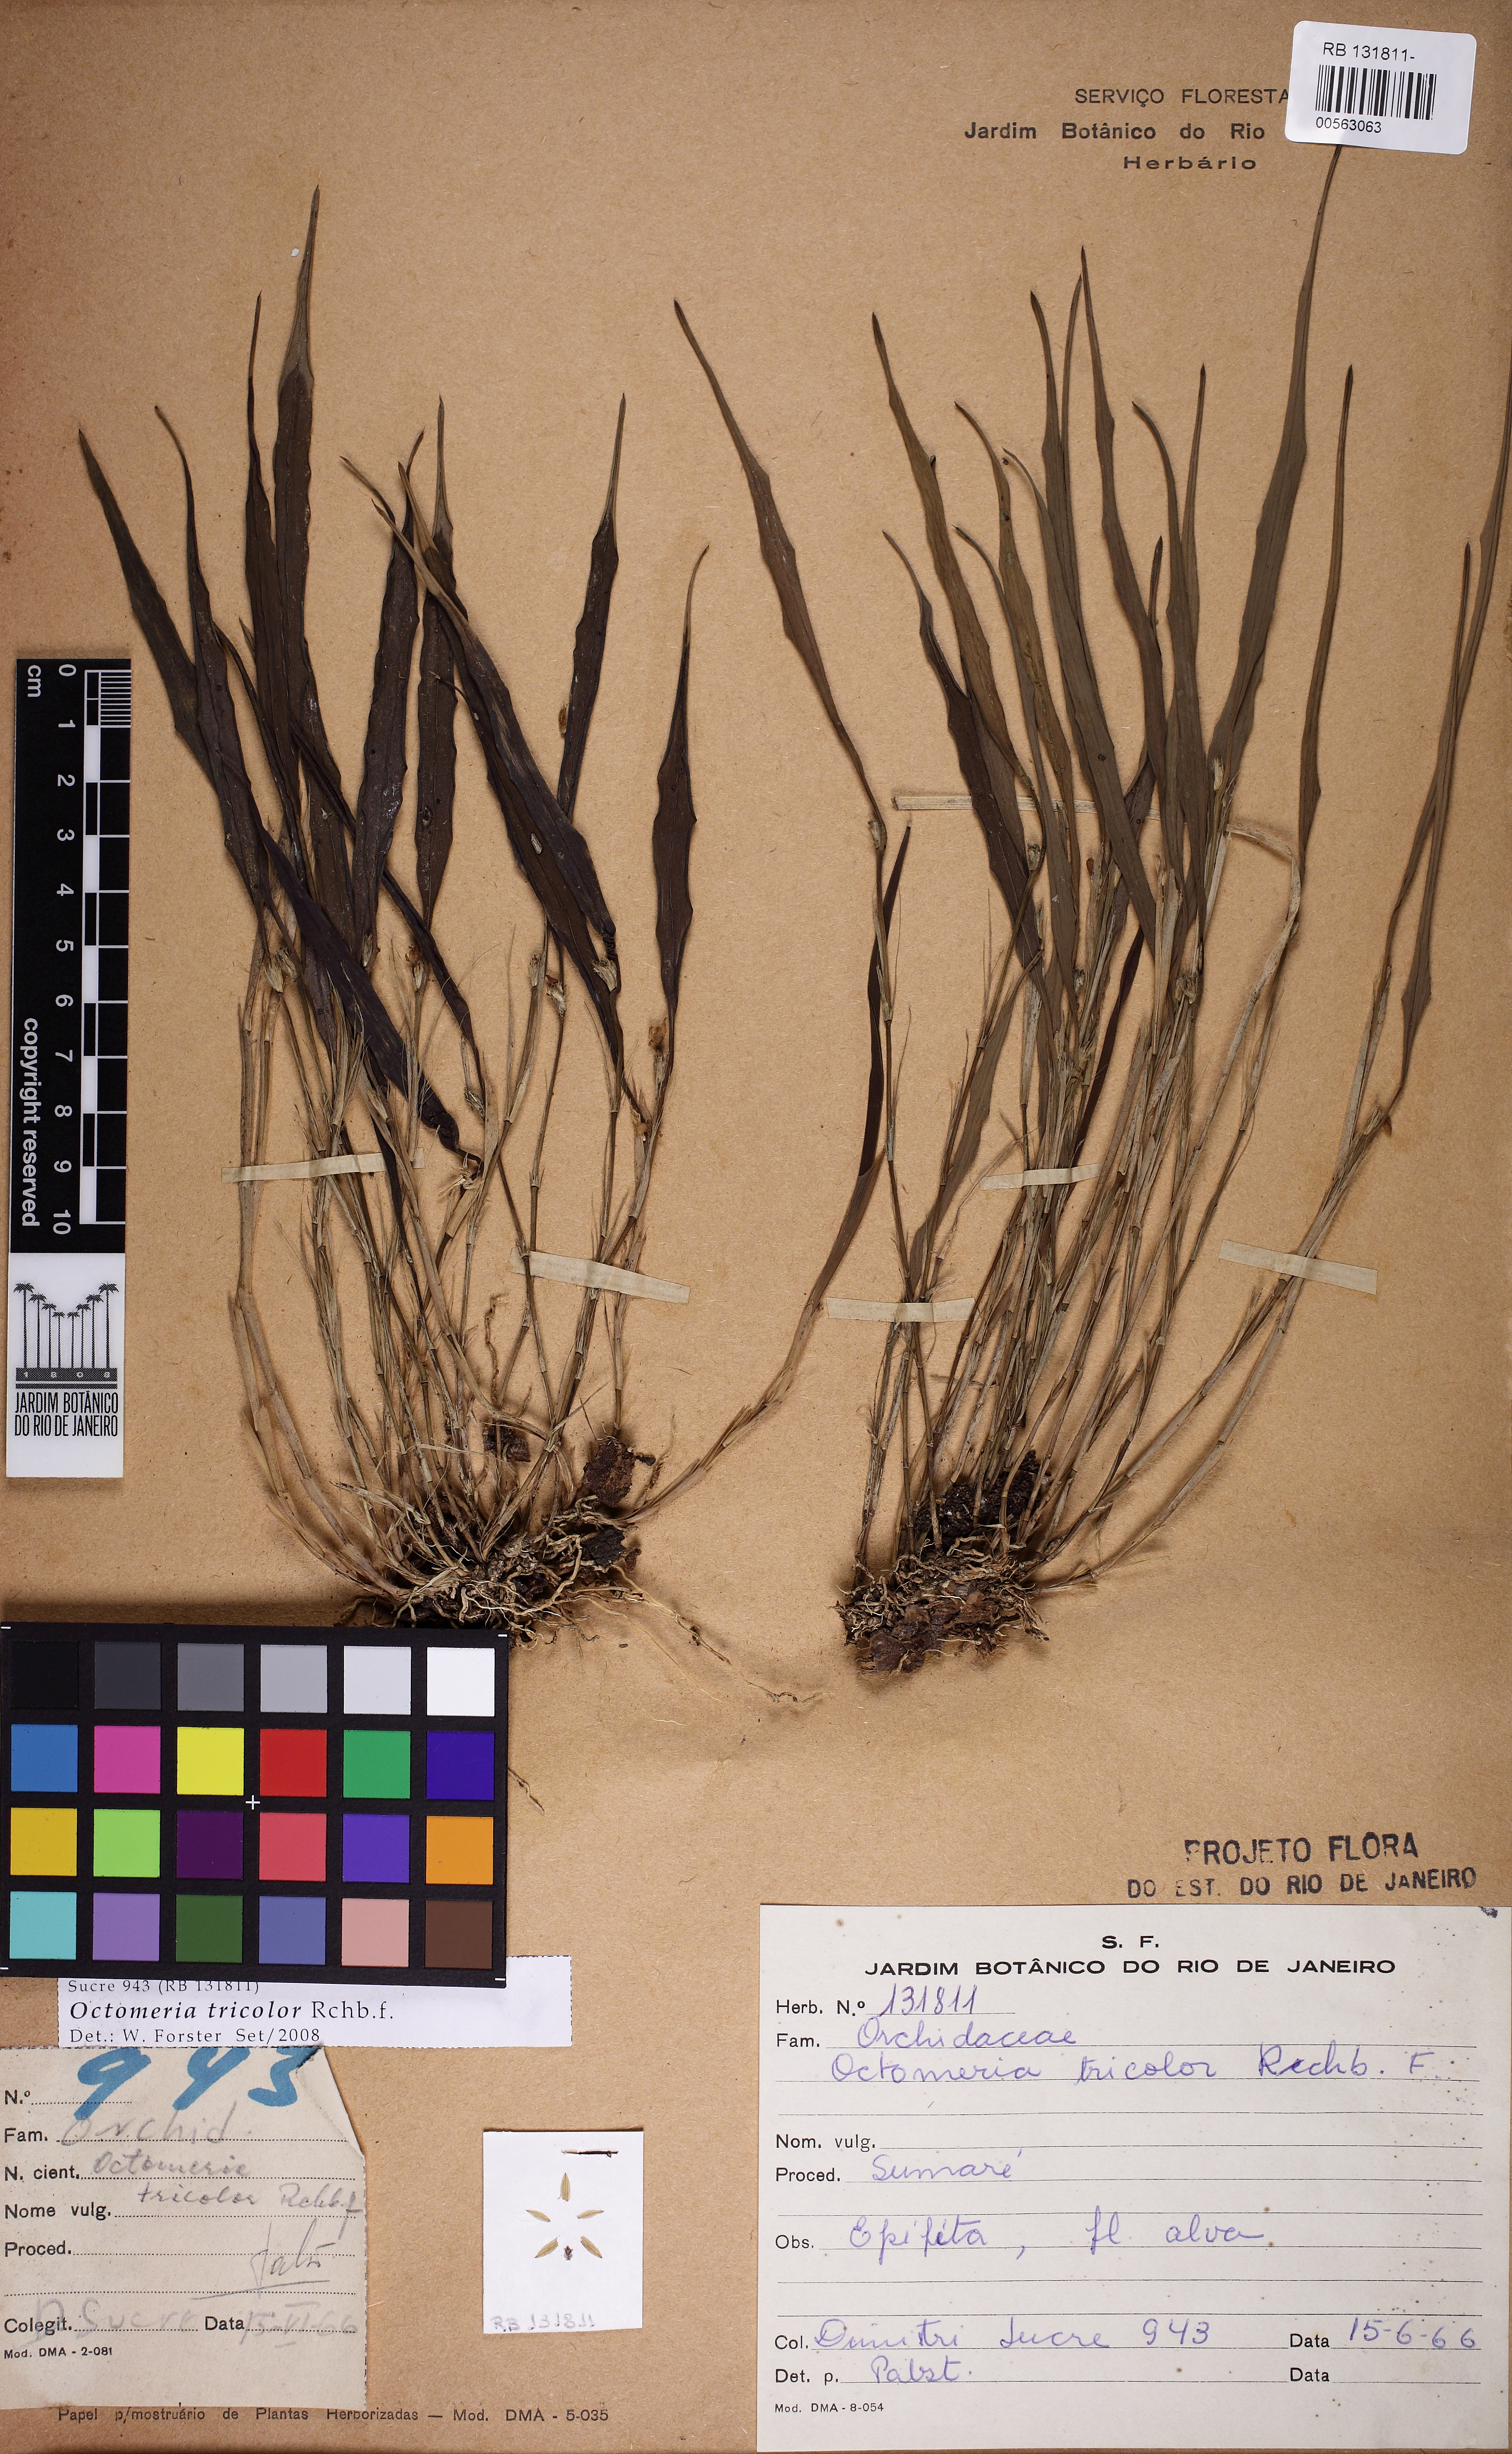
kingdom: Plantae
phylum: Tracheophyta
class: Liliopsida
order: Asparagales
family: Orchidaceae
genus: Octomeria
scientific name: Octomeria tricolor
